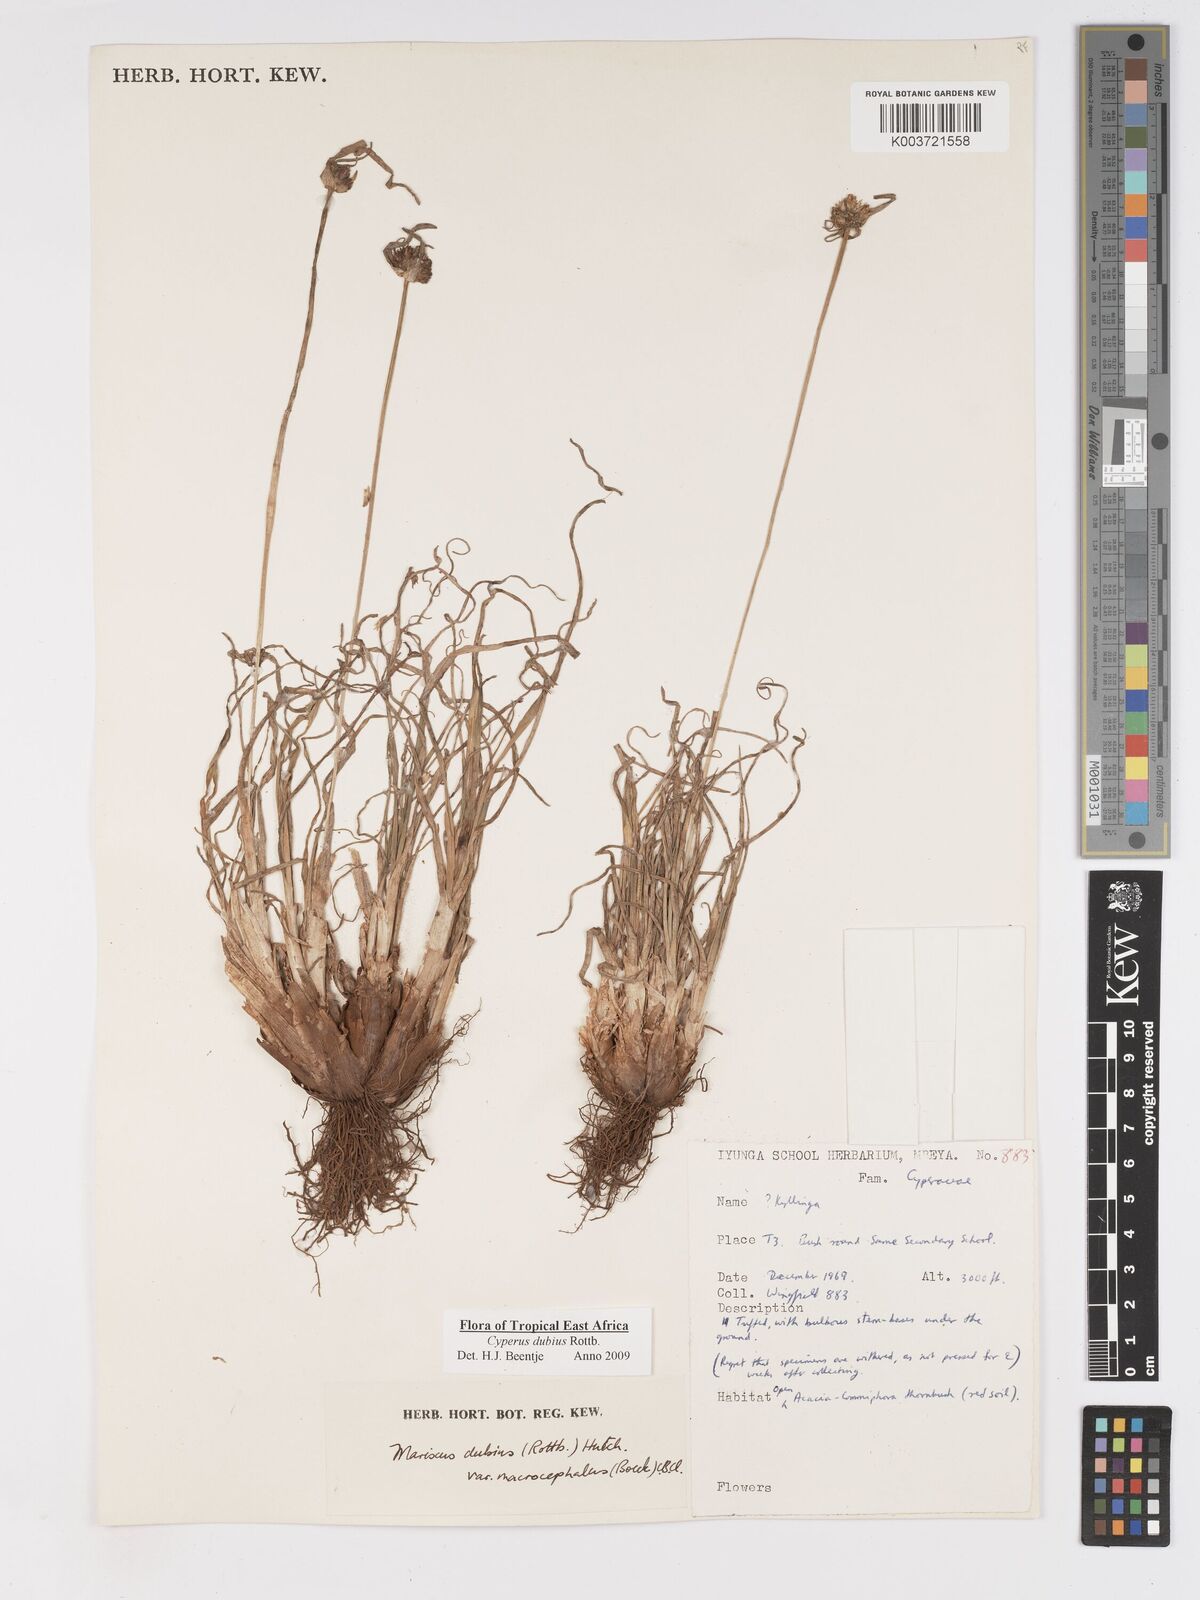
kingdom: Plantae
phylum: Tracheophyta
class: Liliopsida
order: Poales
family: Cyperaceae
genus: Cyperus
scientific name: Cyperus dubius
